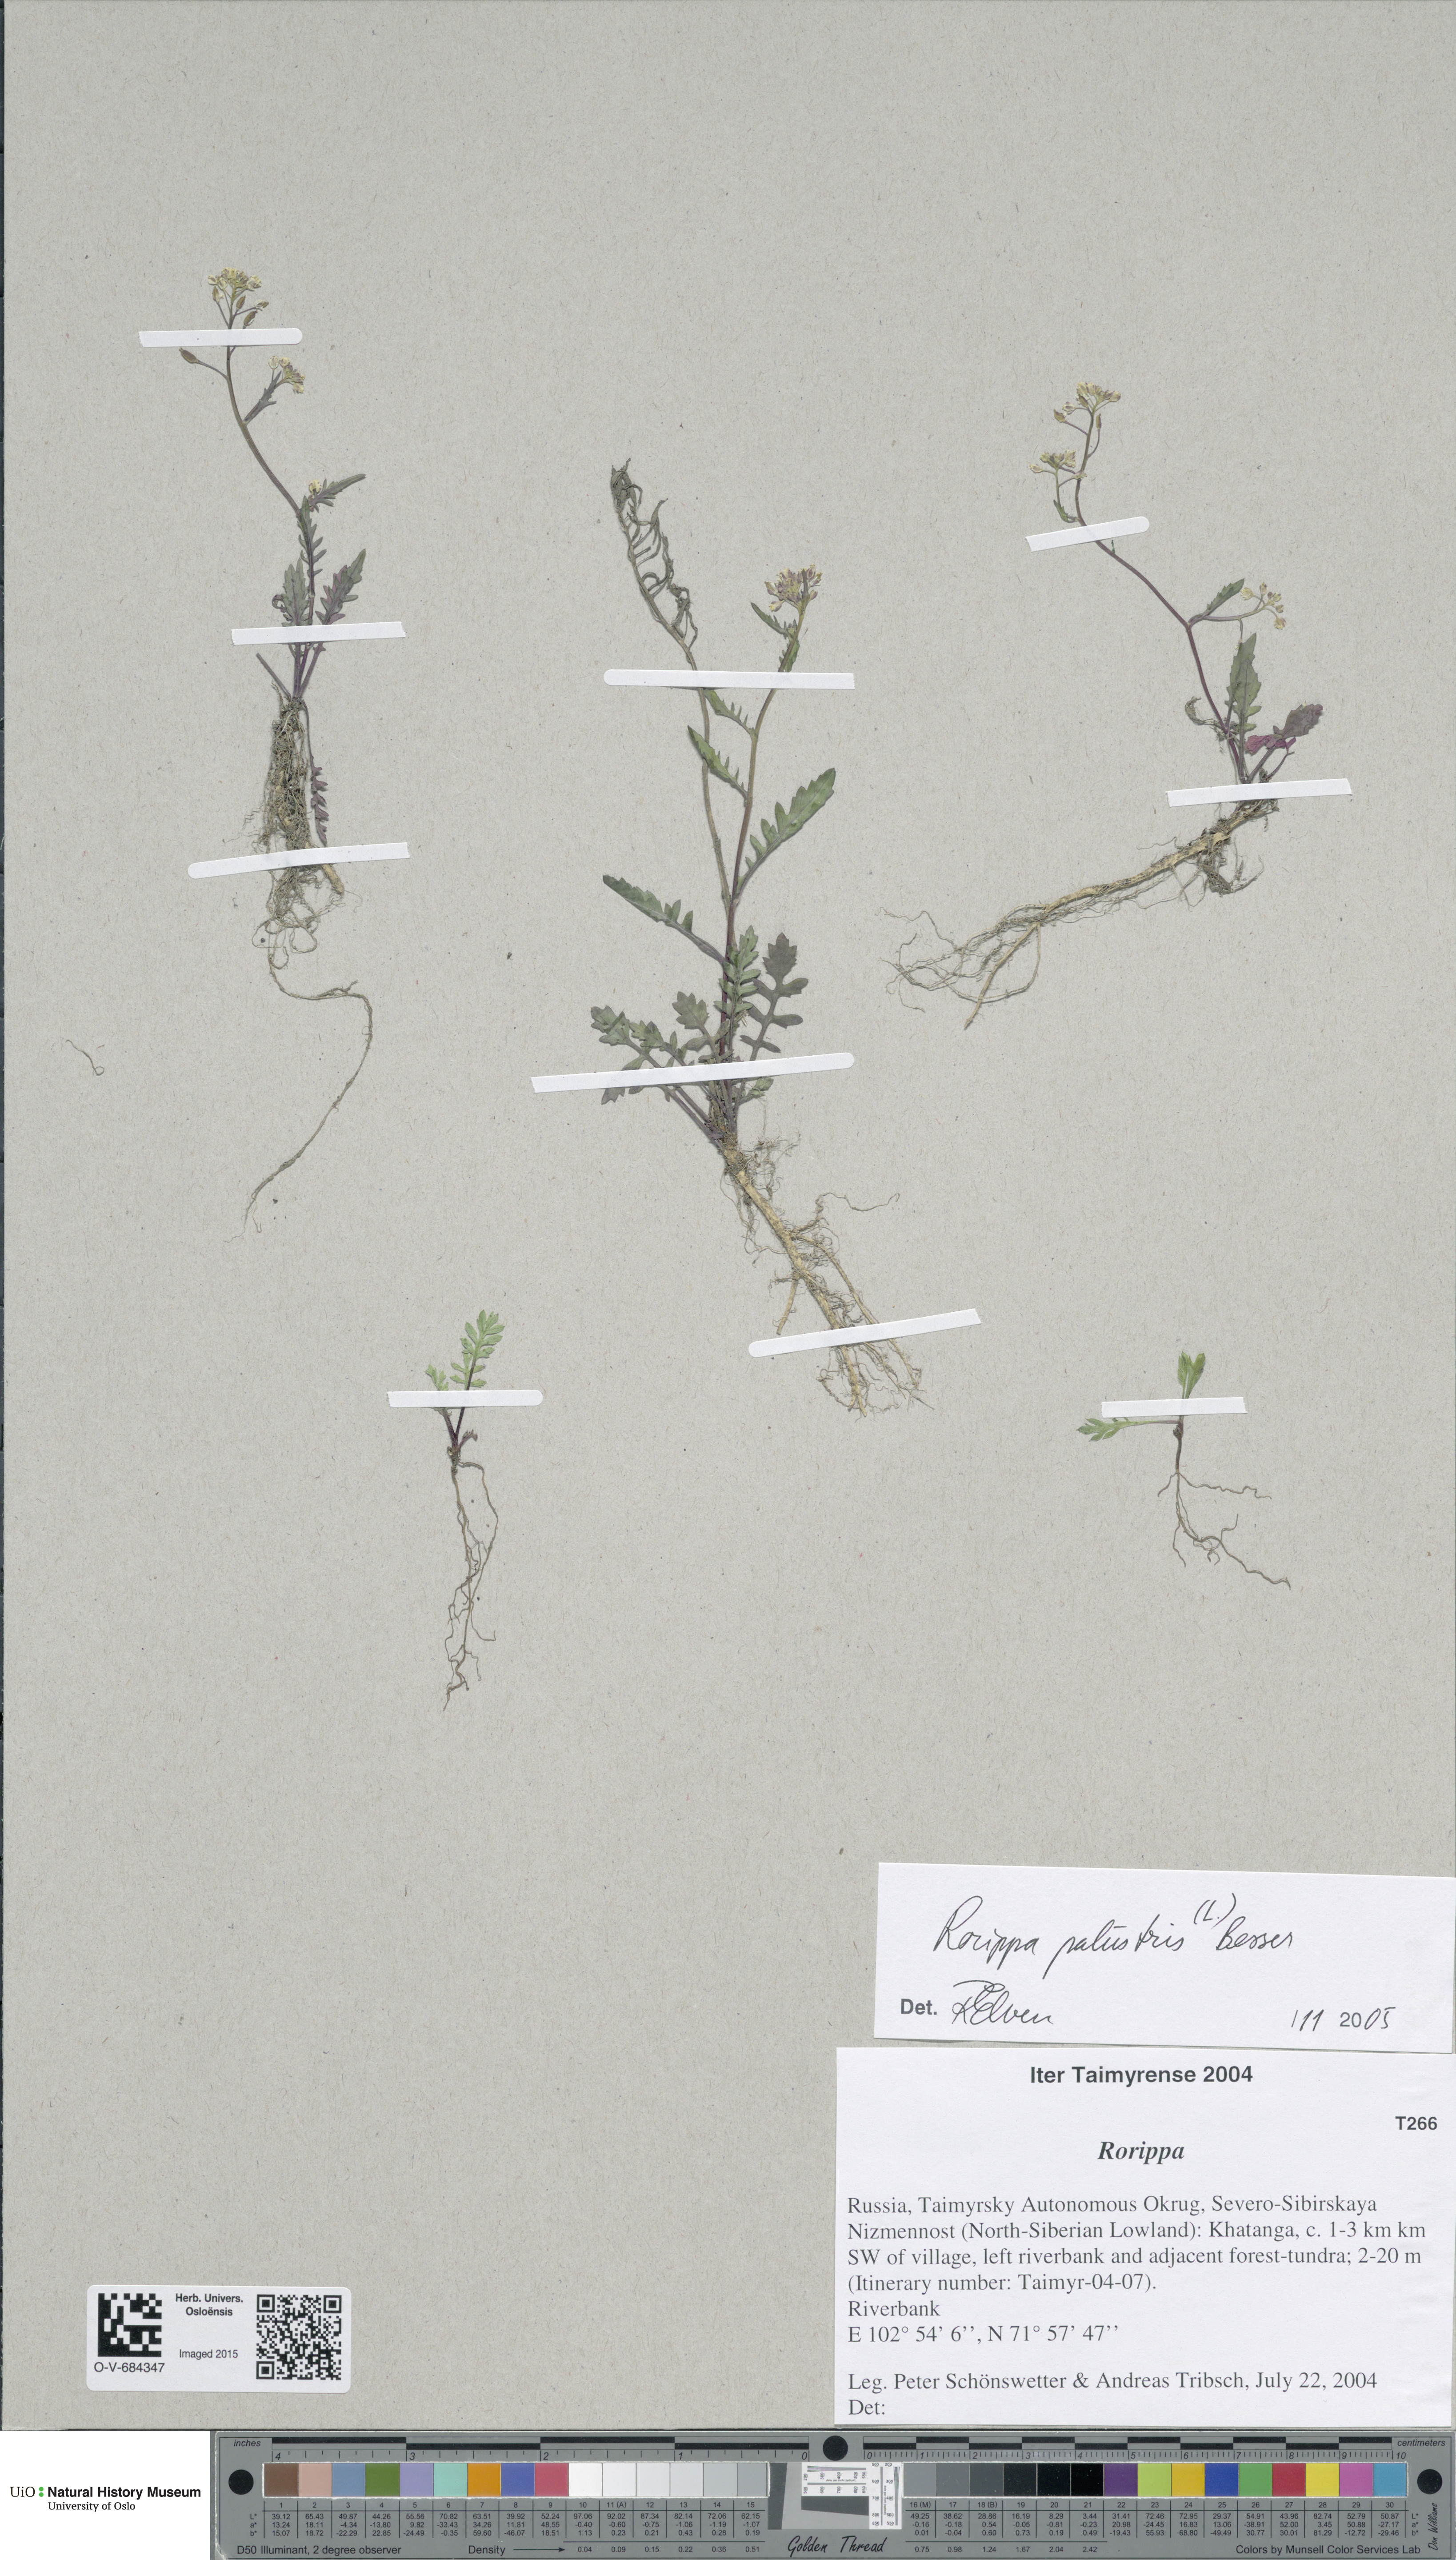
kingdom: Plantae
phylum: Tracheophyta
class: Magnoliopsida
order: Brassicales
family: Brassicaceae
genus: Rorippa
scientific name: Rorippa palustris
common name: Marsh yellow-cress
